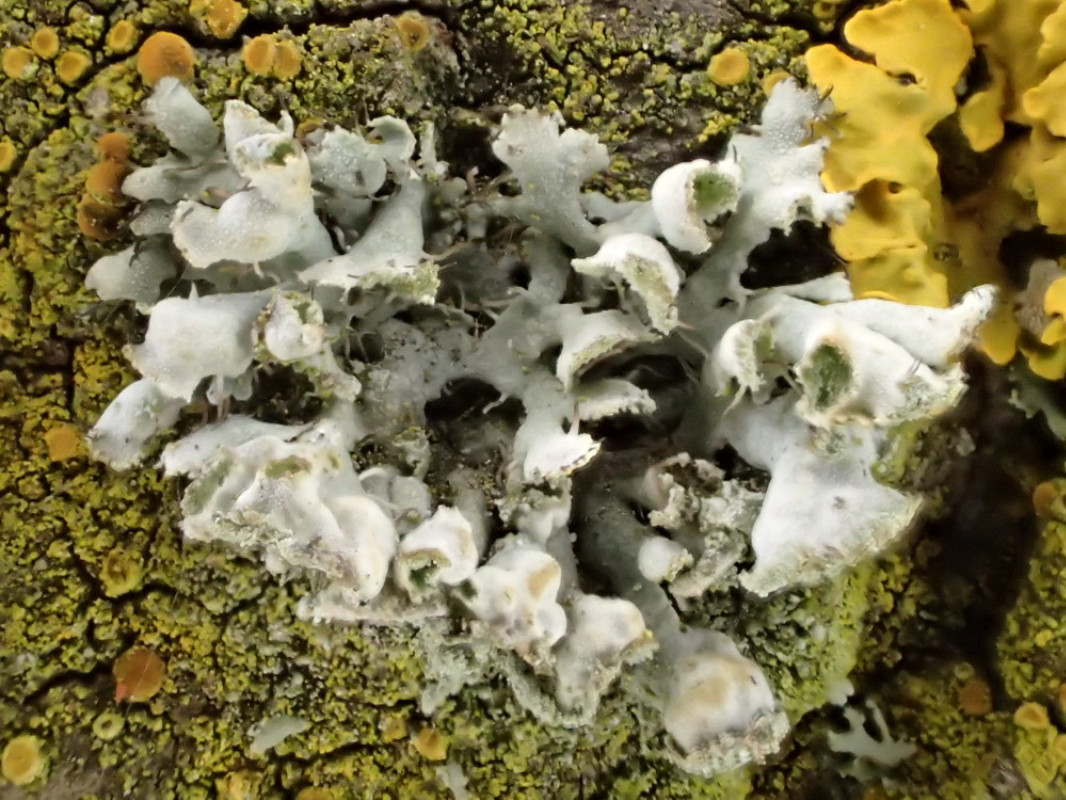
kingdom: Fungi
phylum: Ascomycota
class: Lecanoromycetes
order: Caliciales
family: Physciaceae
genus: Physcia
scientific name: Physcia adscendens
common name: hætte-rosetlav
